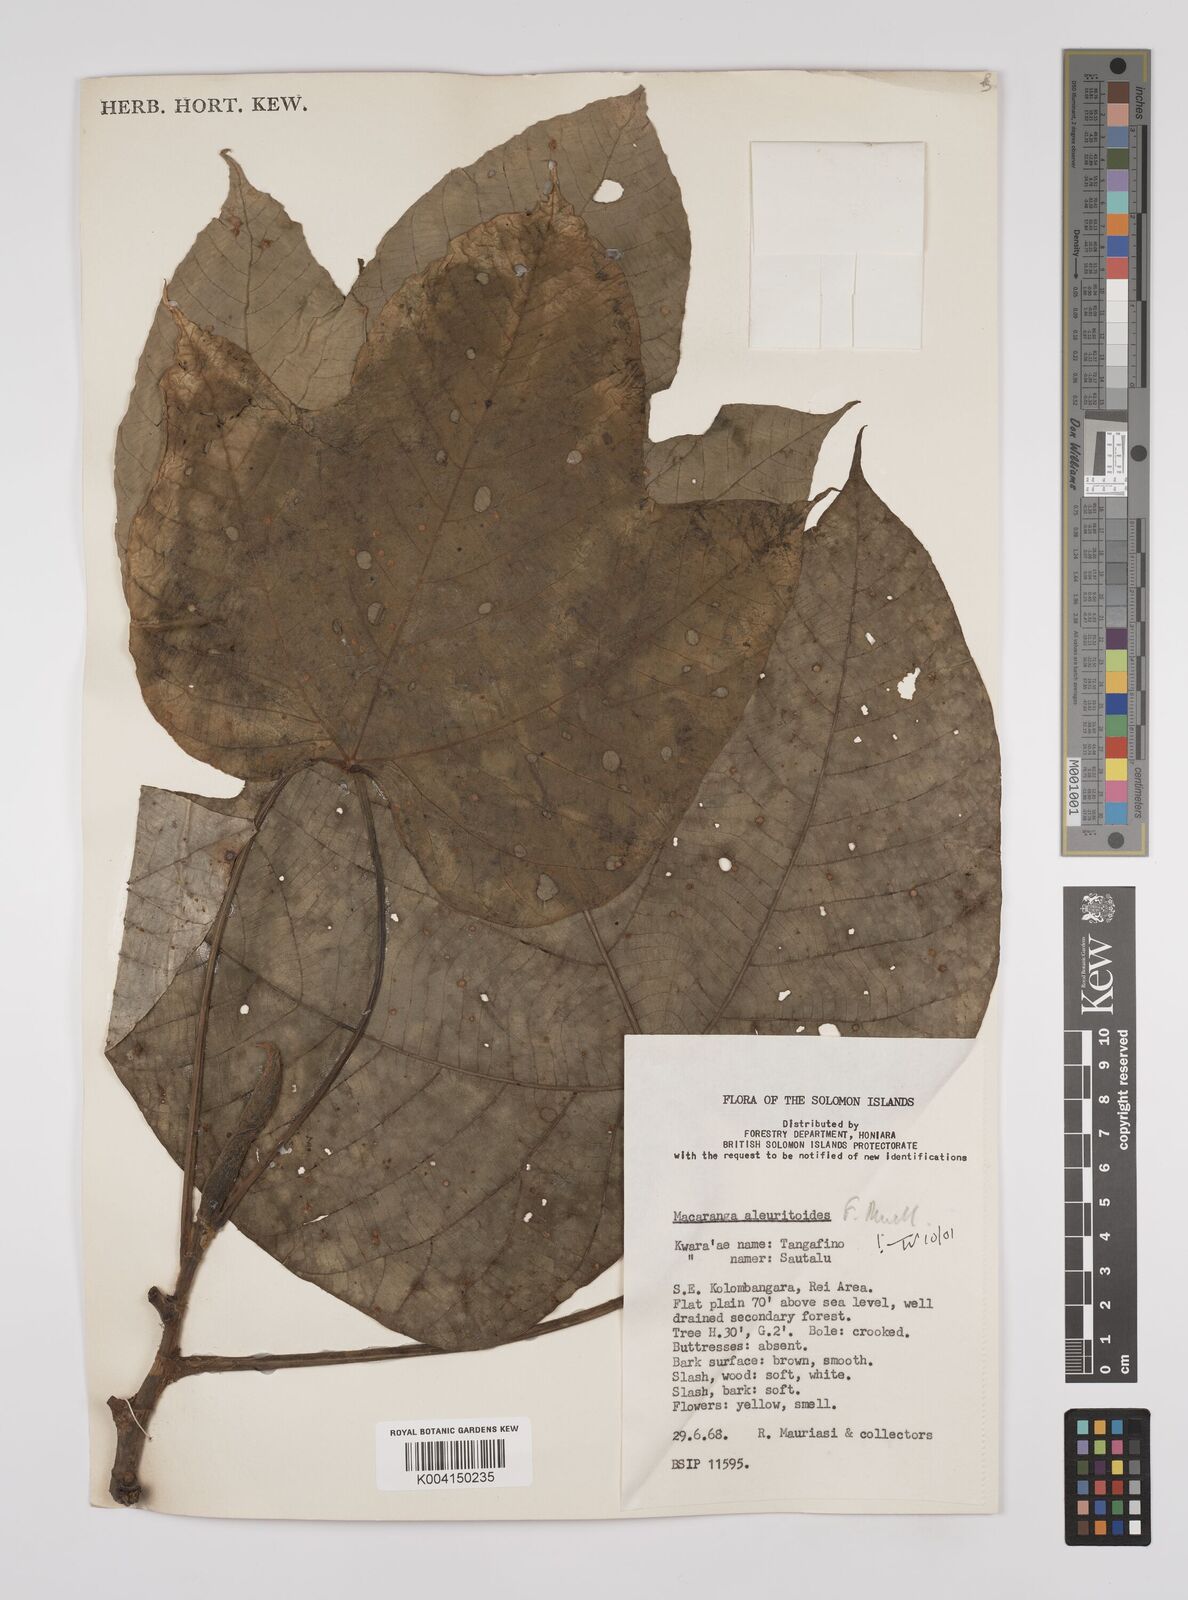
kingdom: Plantae
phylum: Tracheophyta
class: Magnoliopsida
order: Malpighiales
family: Euphorbiaceae
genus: Macaranga
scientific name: Macaranga aleuritoides
